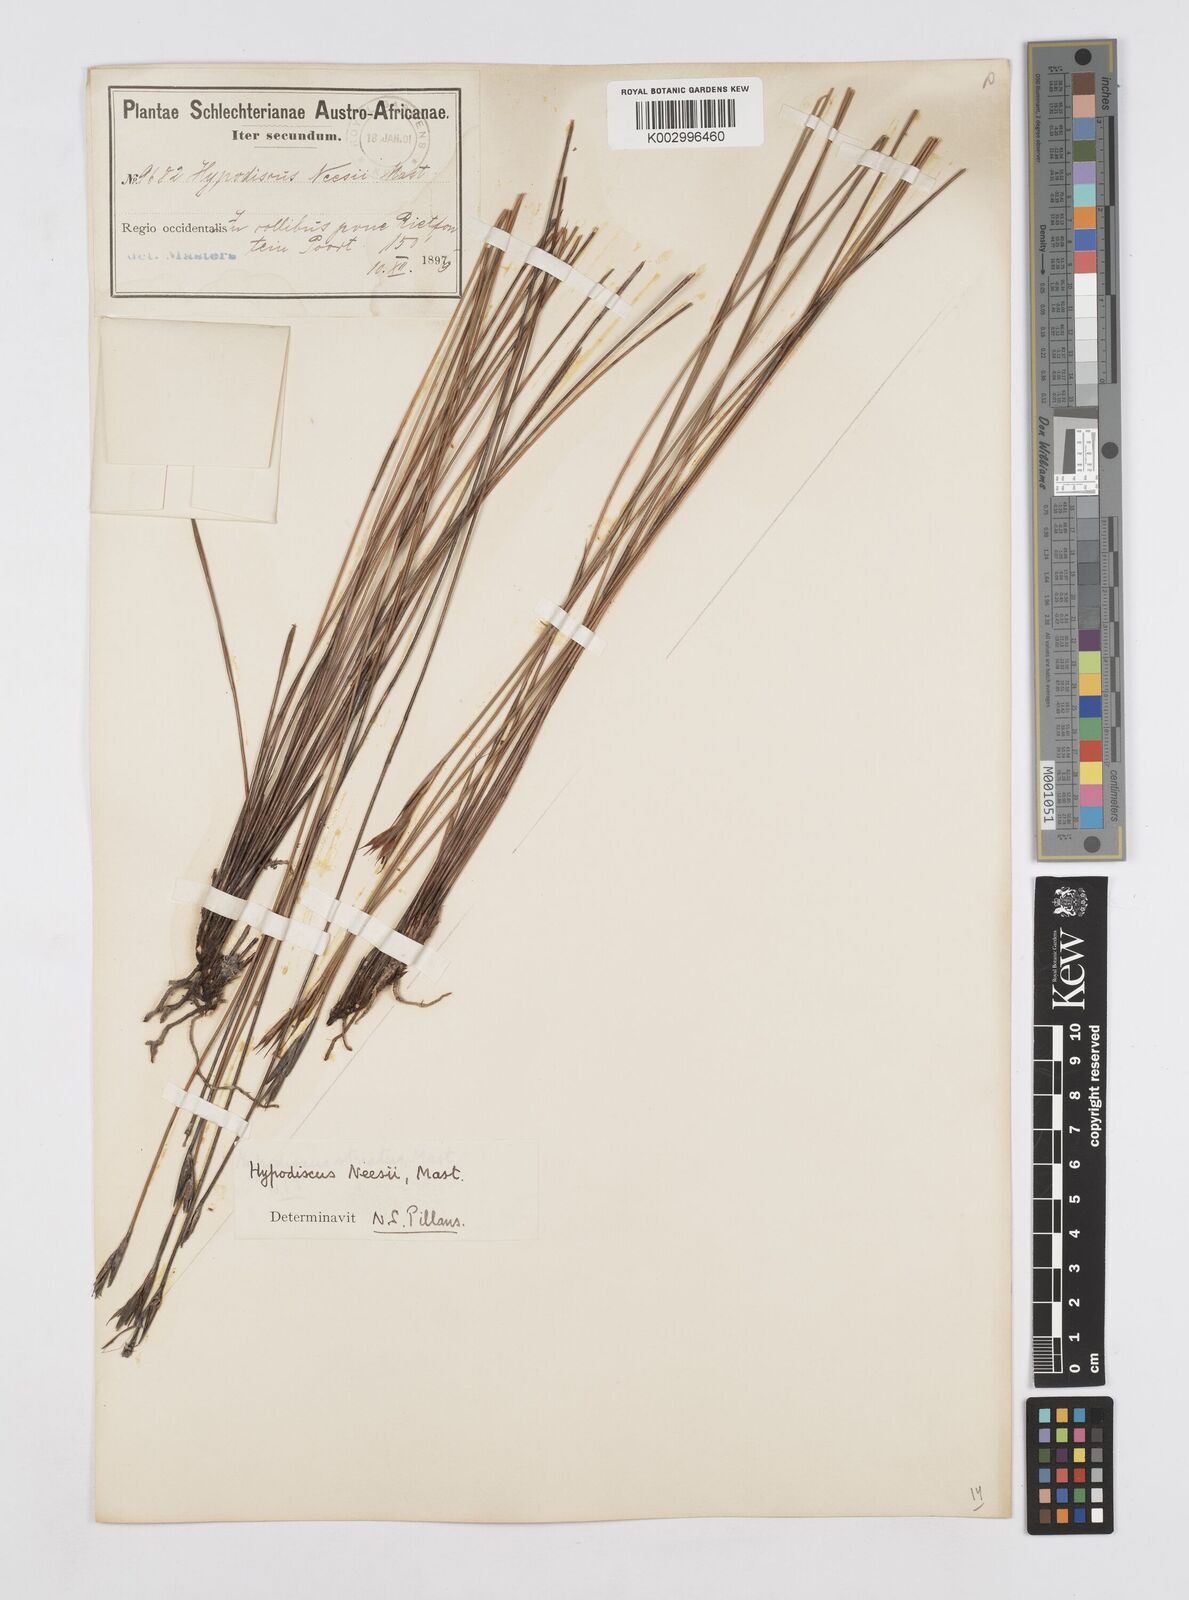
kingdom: Plantae
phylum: Tracheophyta
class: Liliopsida
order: Poales
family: Restionaceae
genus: Hypodiscus
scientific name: Hypodiscus neesii
